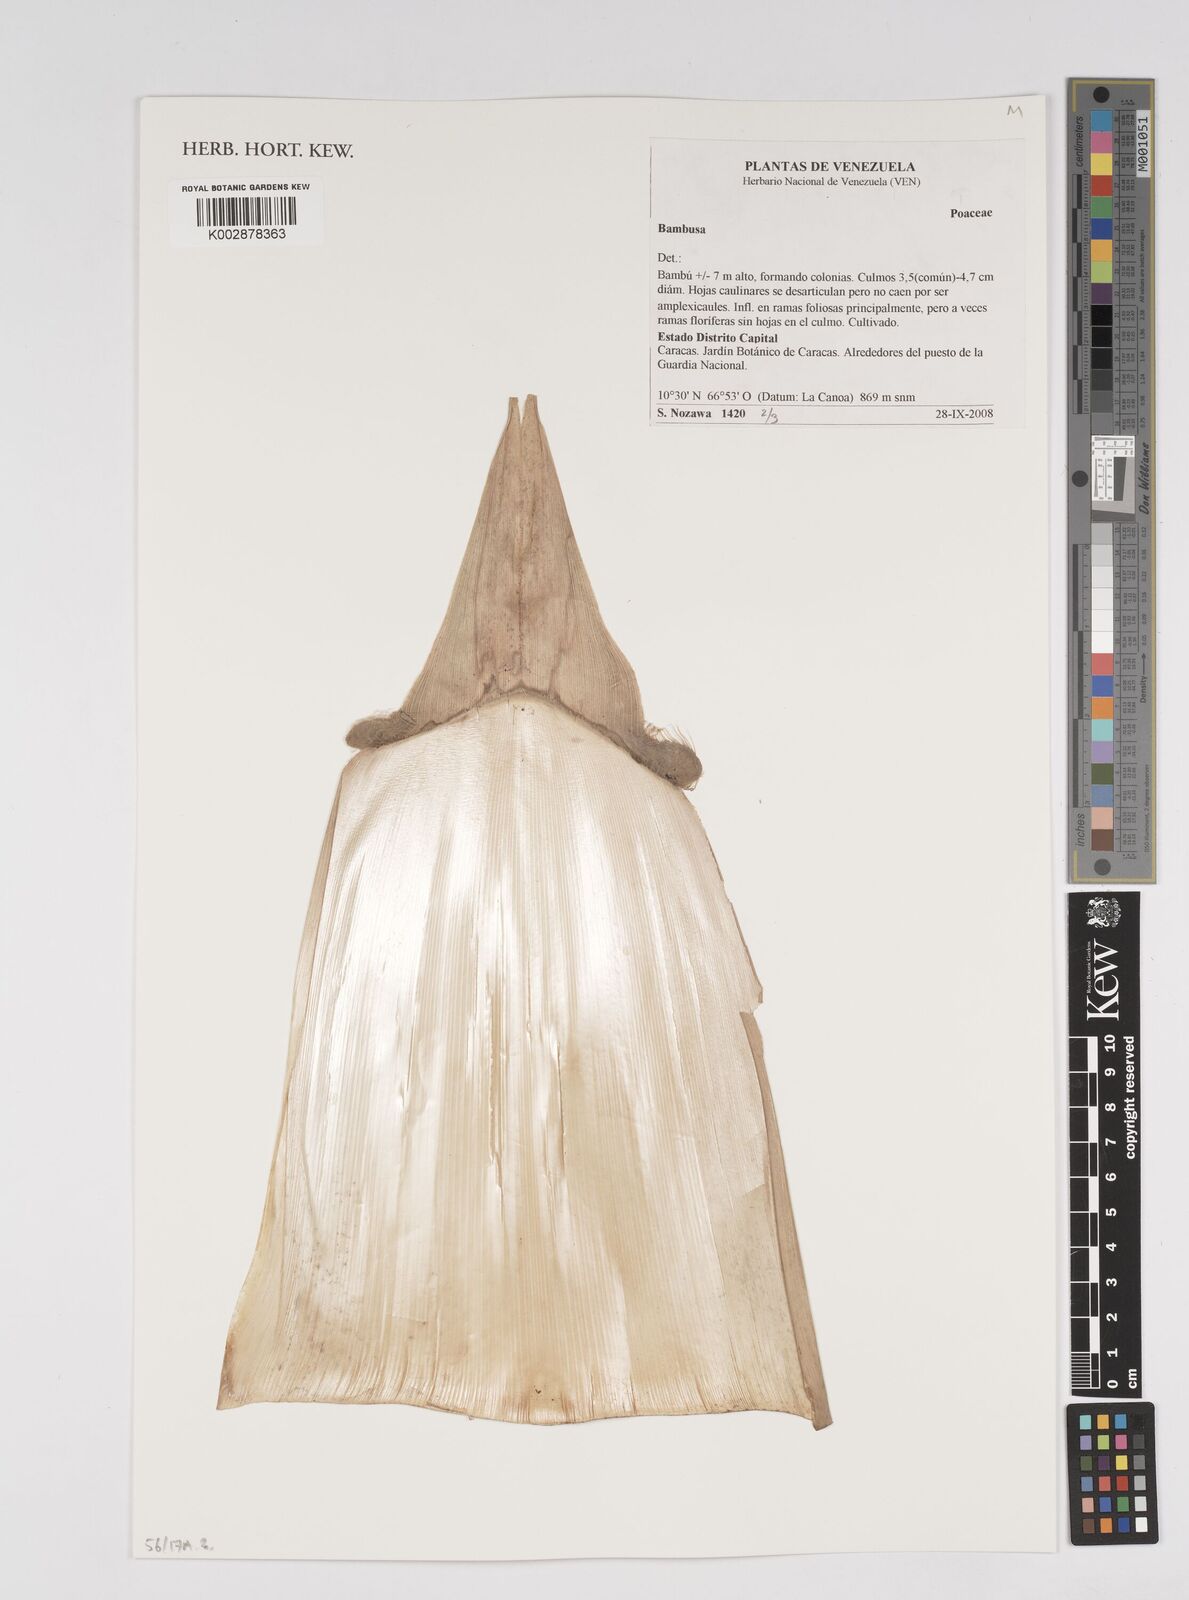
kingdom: Plantae
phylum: Tracheophyta
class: Liliopsida
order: Poales
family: Poaceae
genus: Bambusa
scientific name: Bambusa
